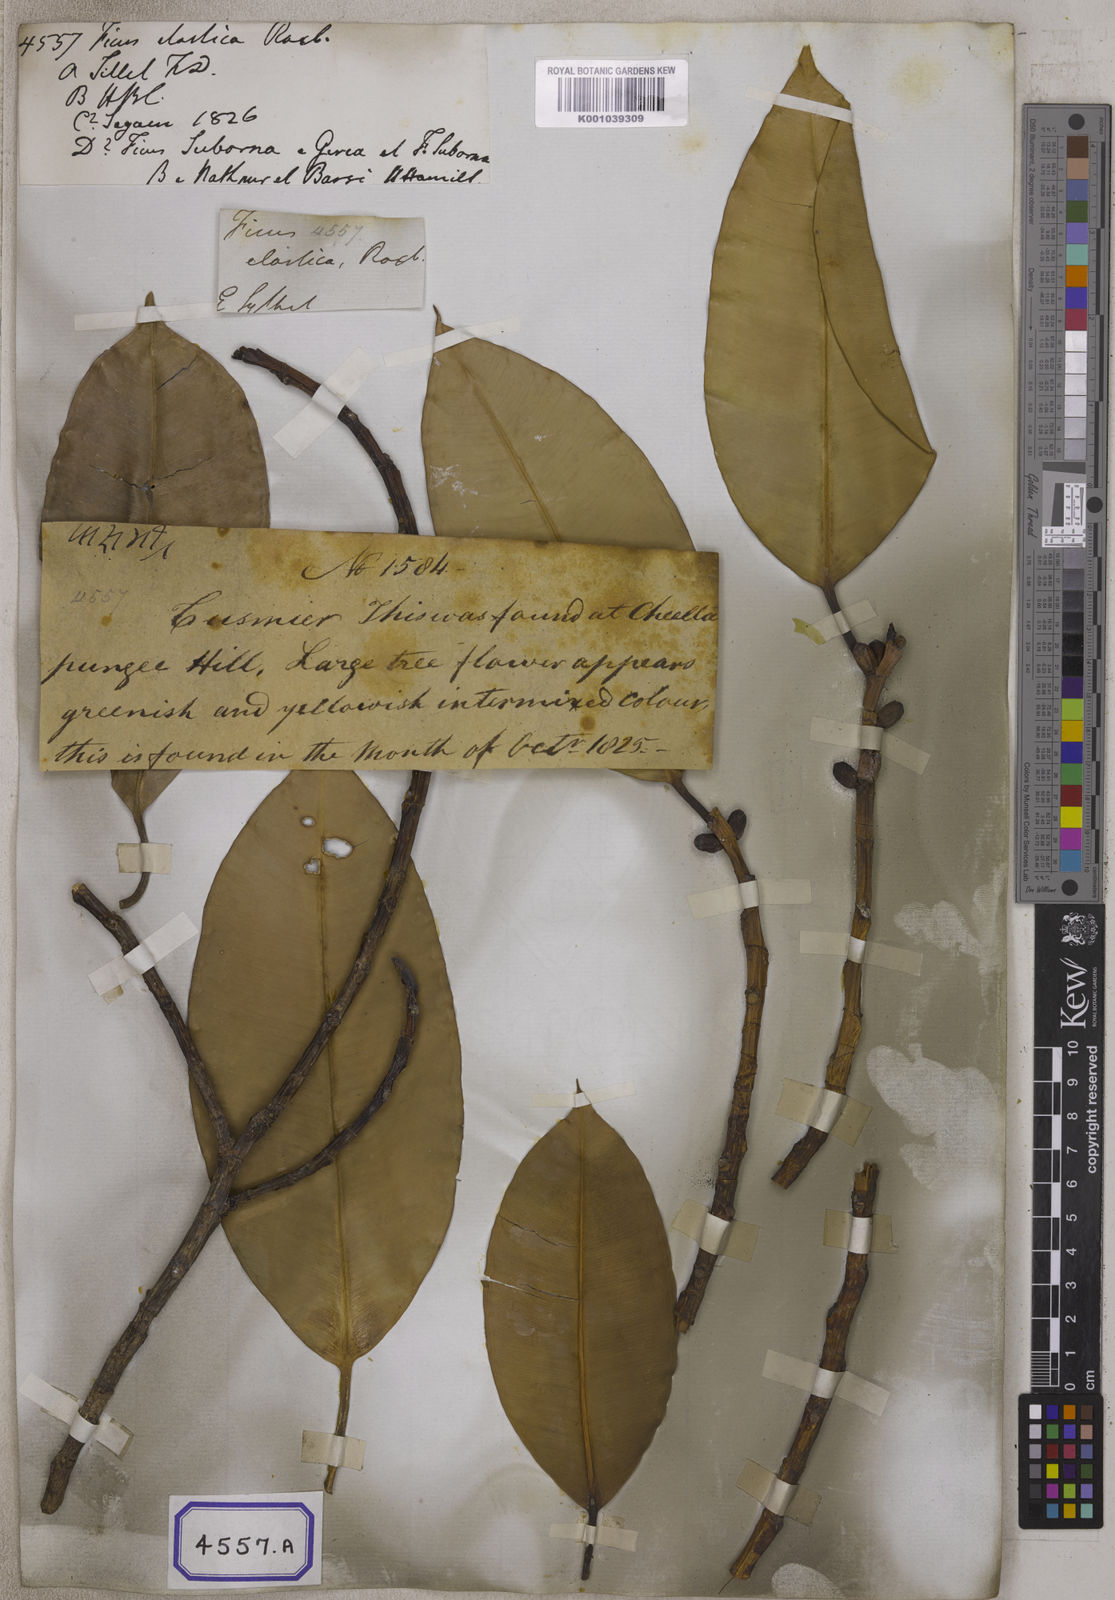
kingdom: Plantae
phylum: Tracheophyta
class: Magnoliopsida
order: Rosales
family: Moraceae
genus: Ficus
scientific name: Ficus
